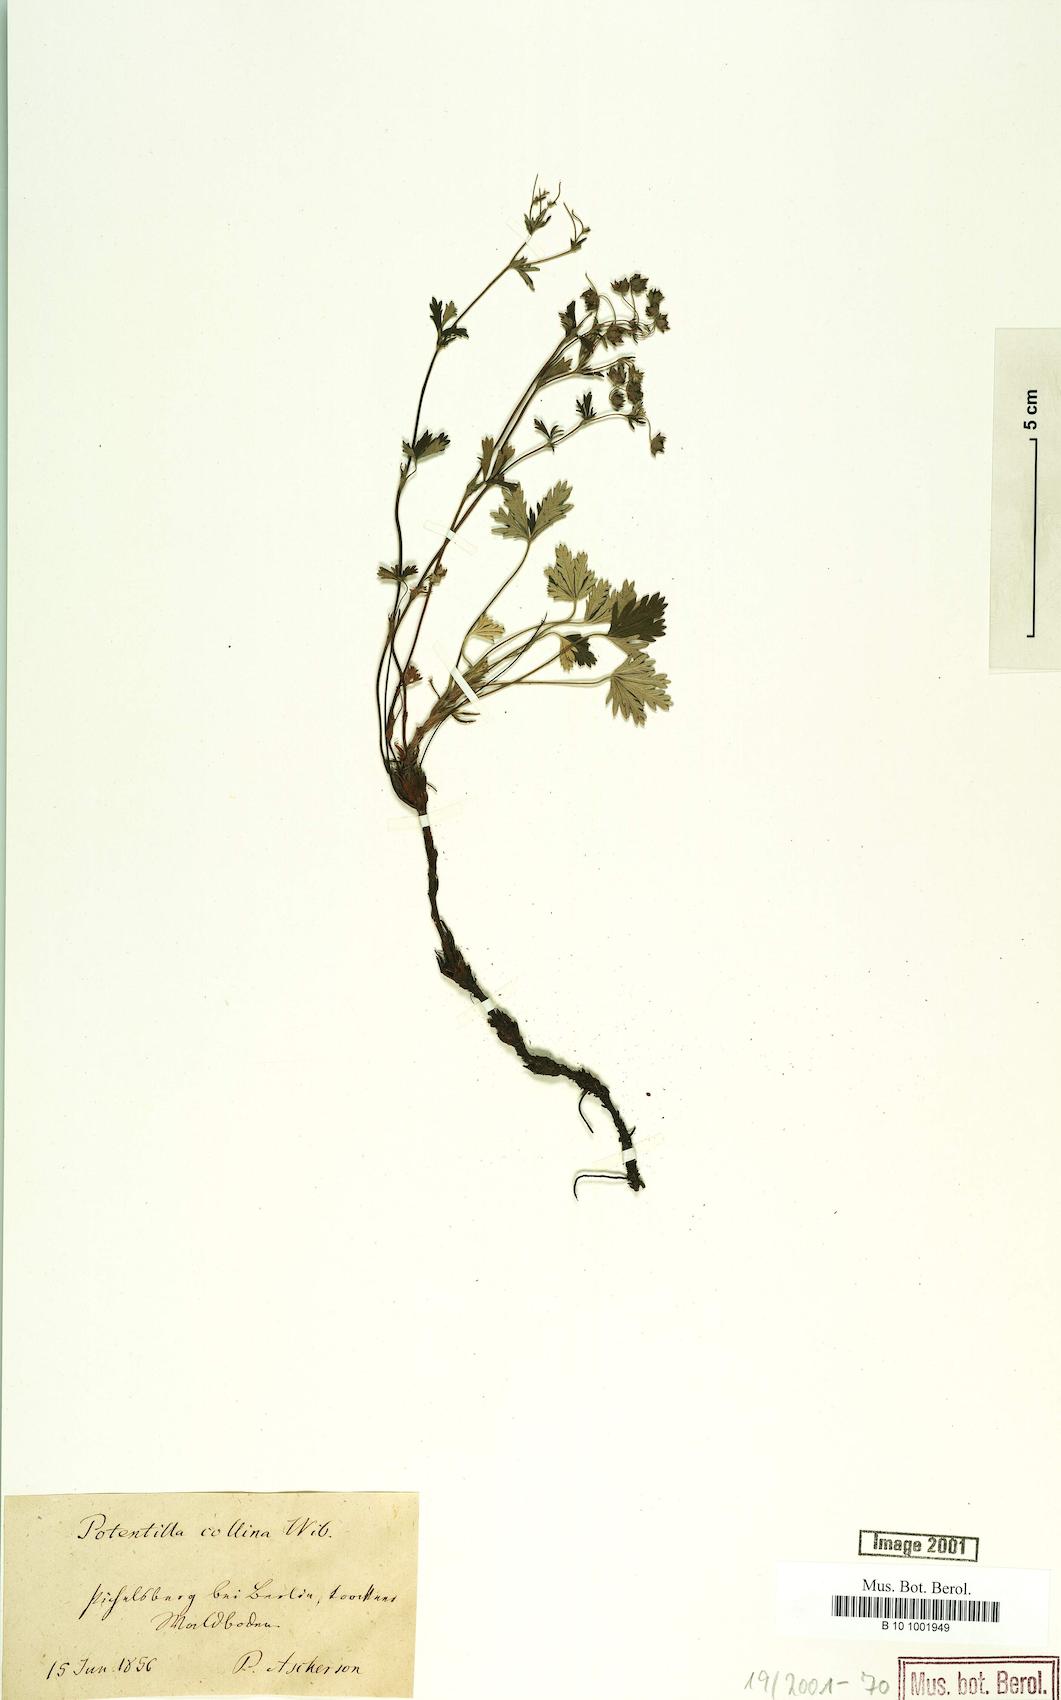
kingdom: Plantae
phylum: Tracheophyta
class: Magnoliopsida
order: Rosales
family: Rosaceae
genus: Potentilla
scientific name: Potentilla collina
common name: Palmleaf cinquefoil
